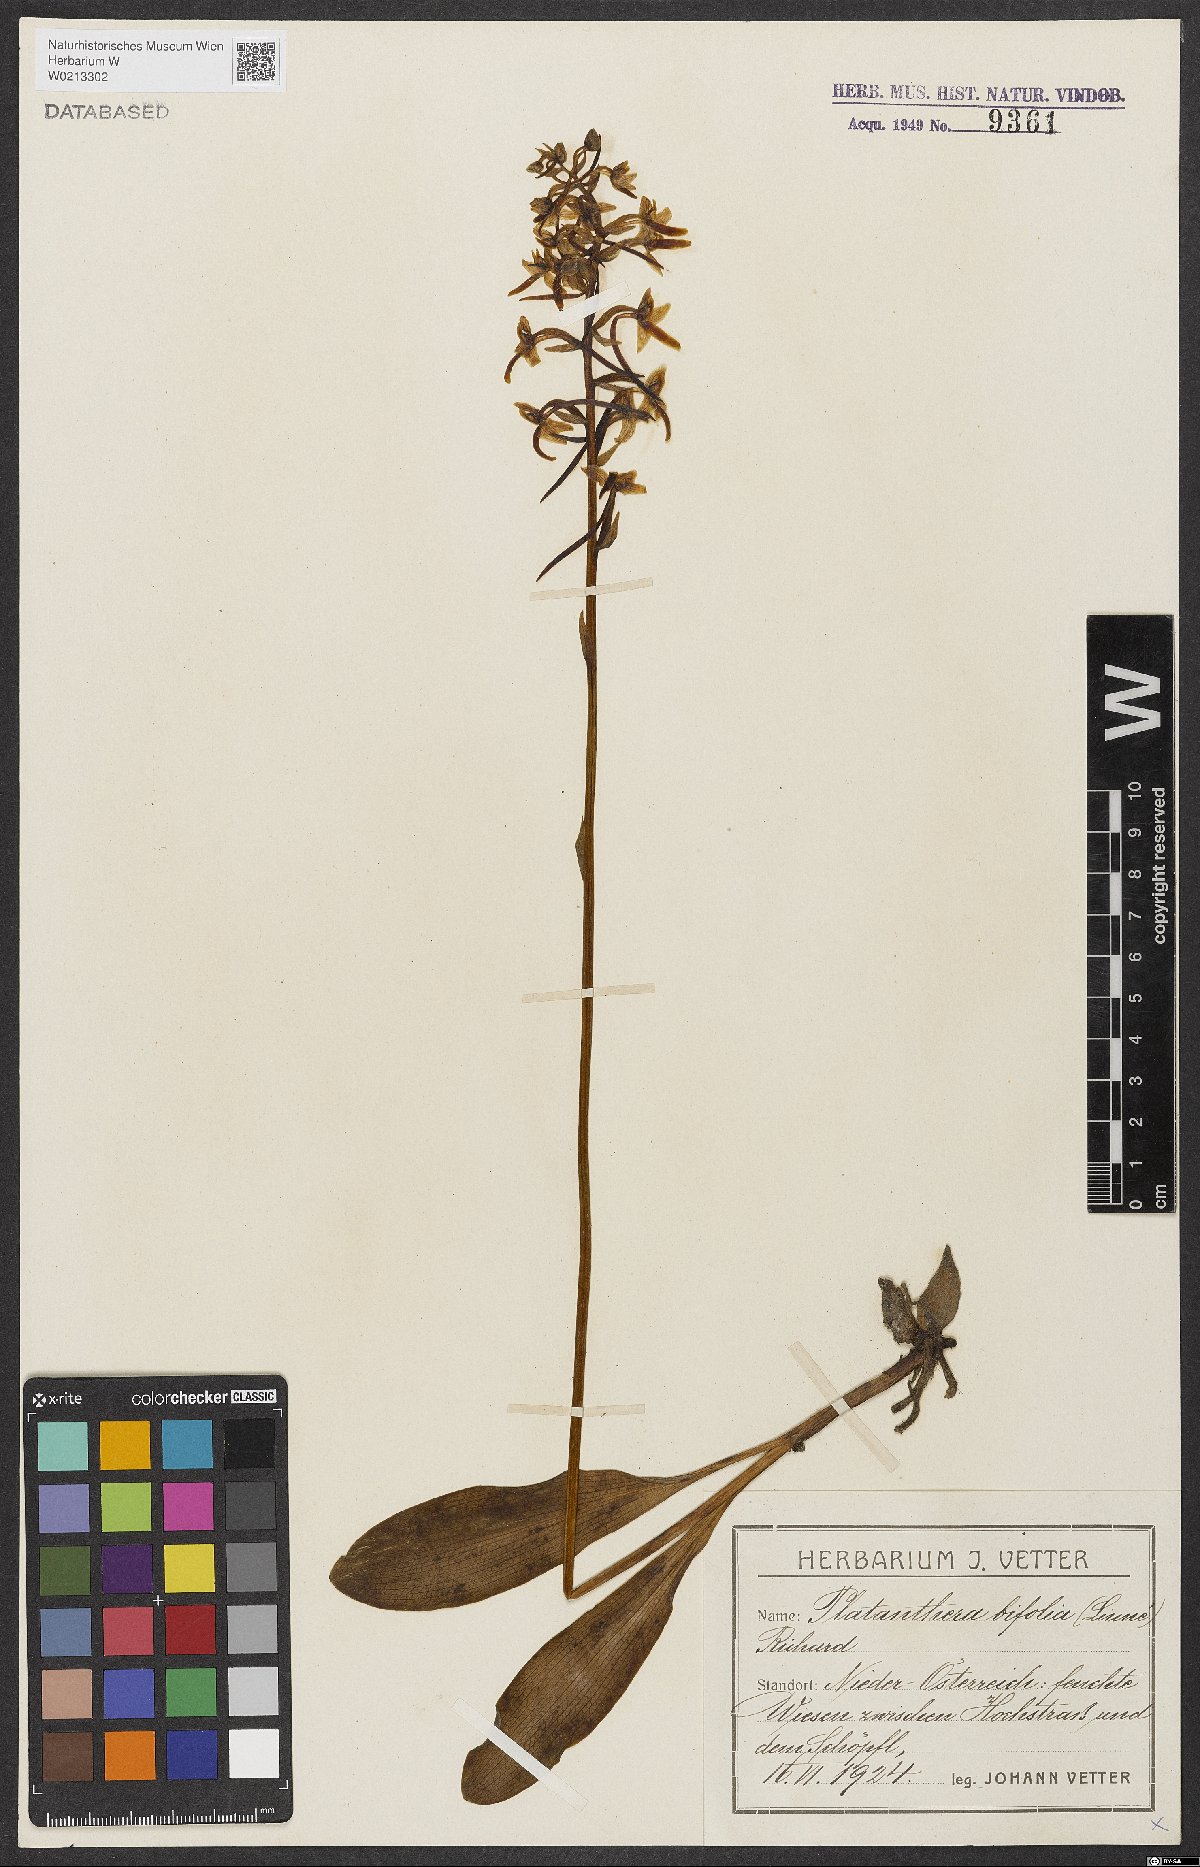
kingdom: Plantae
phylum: Tracheophyta
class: Liliopsida
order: Asparagales
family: Orchidaceae
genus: Platanthera
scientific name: Platanthera bifolia
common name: Lesser butterfly-orchid
